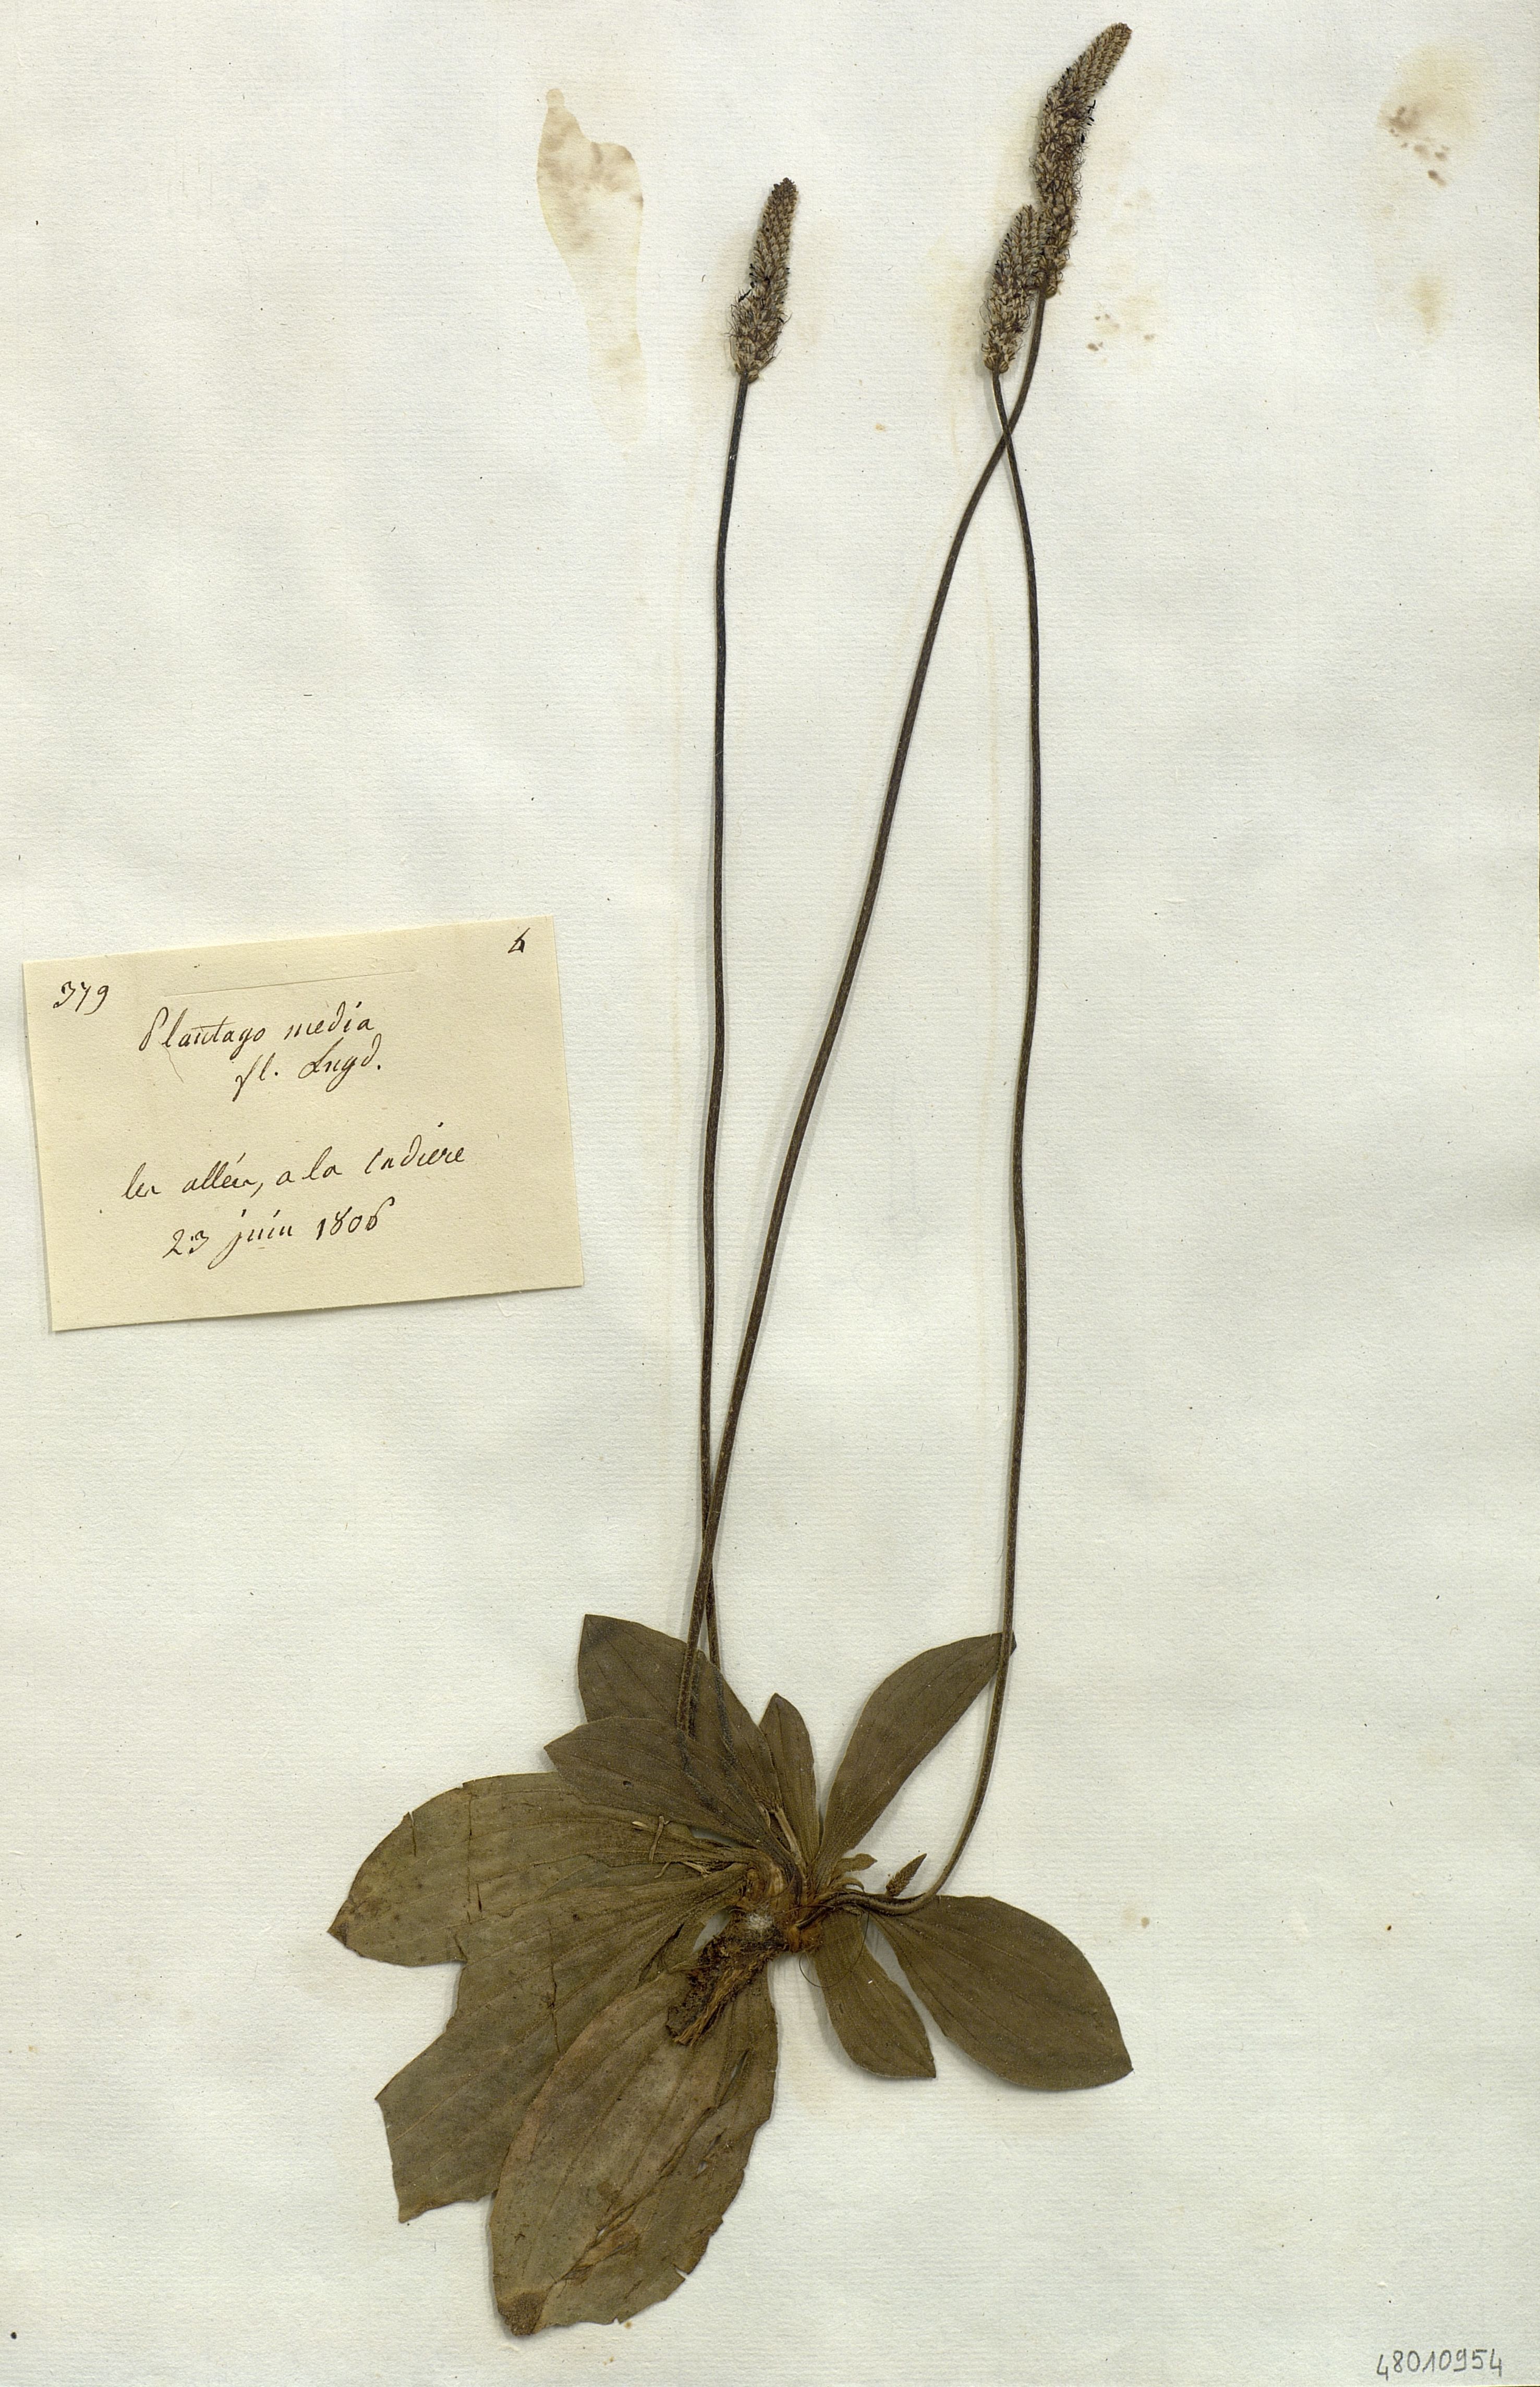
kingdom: Plantae
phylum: Tracheophyta
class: Magnoliopsida
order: Lamiales
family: Plantaginaceae
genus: Plantago
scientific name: Plantago media
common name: Hoary plantain
